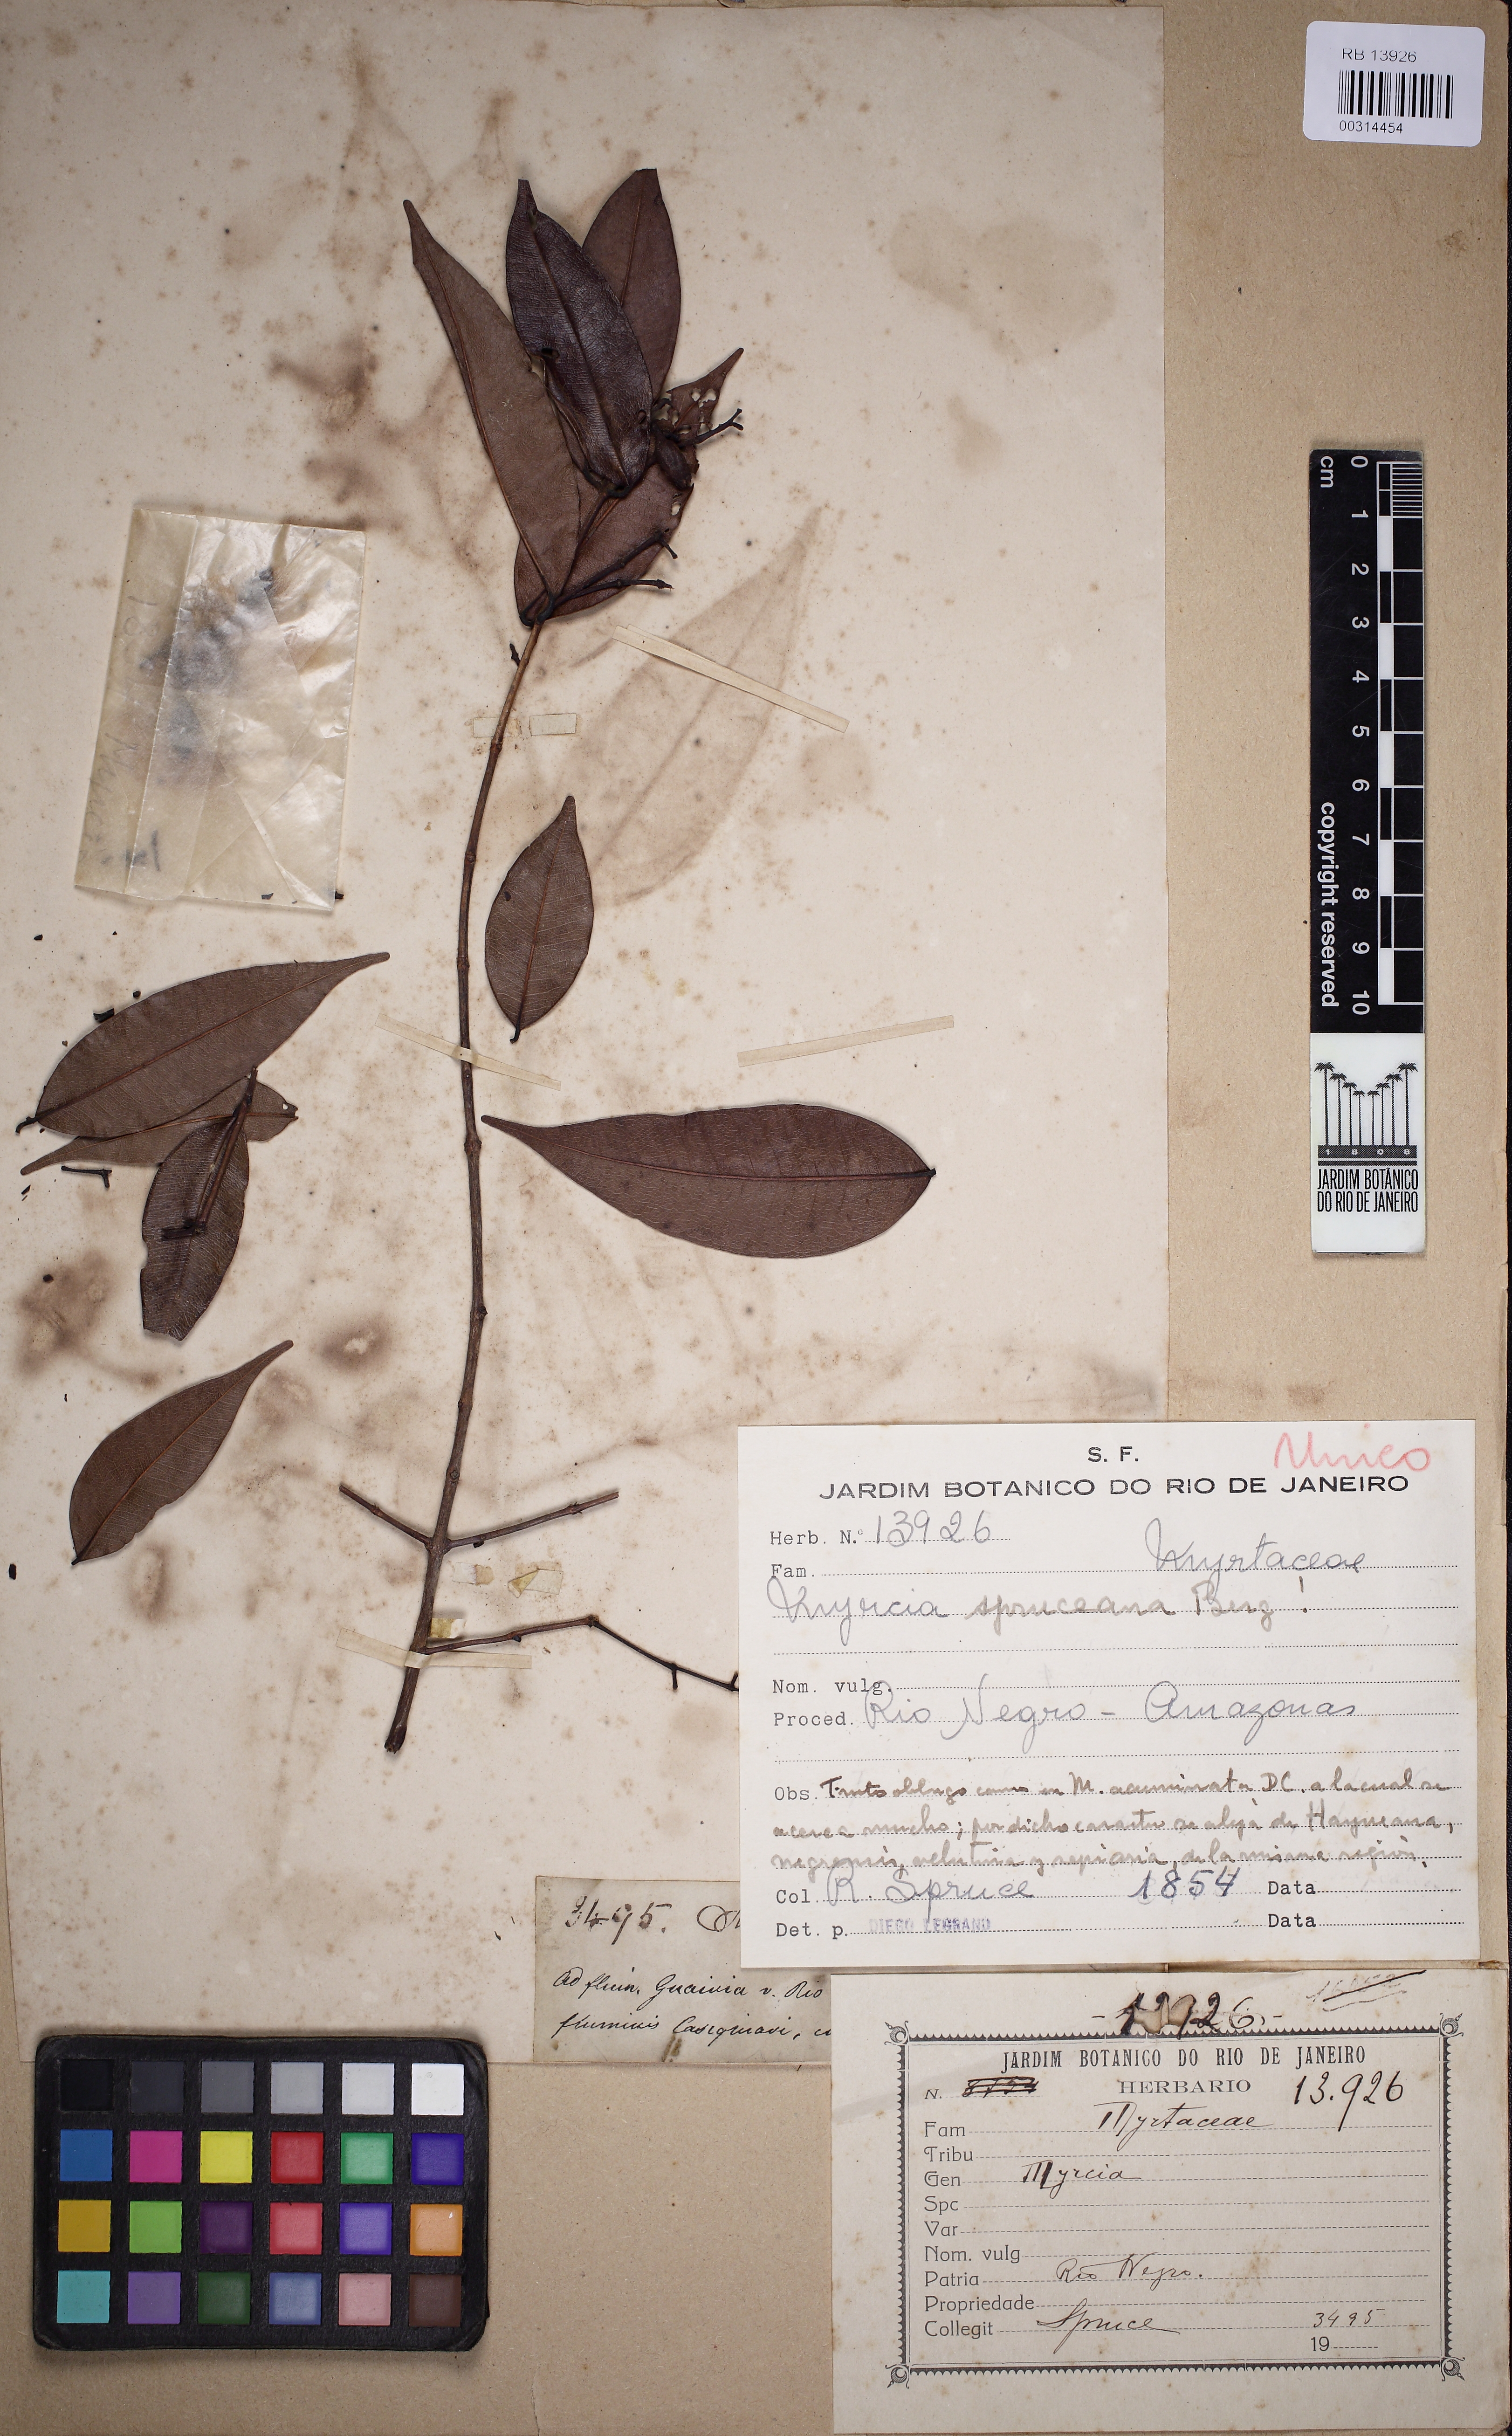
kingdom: Plantae
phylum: Tracheophyta
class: Magnoliopsida
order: Myrtales
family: Myrtaceae
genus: Myrcia
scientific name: Myrcia splendens
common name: Surinam cherry
